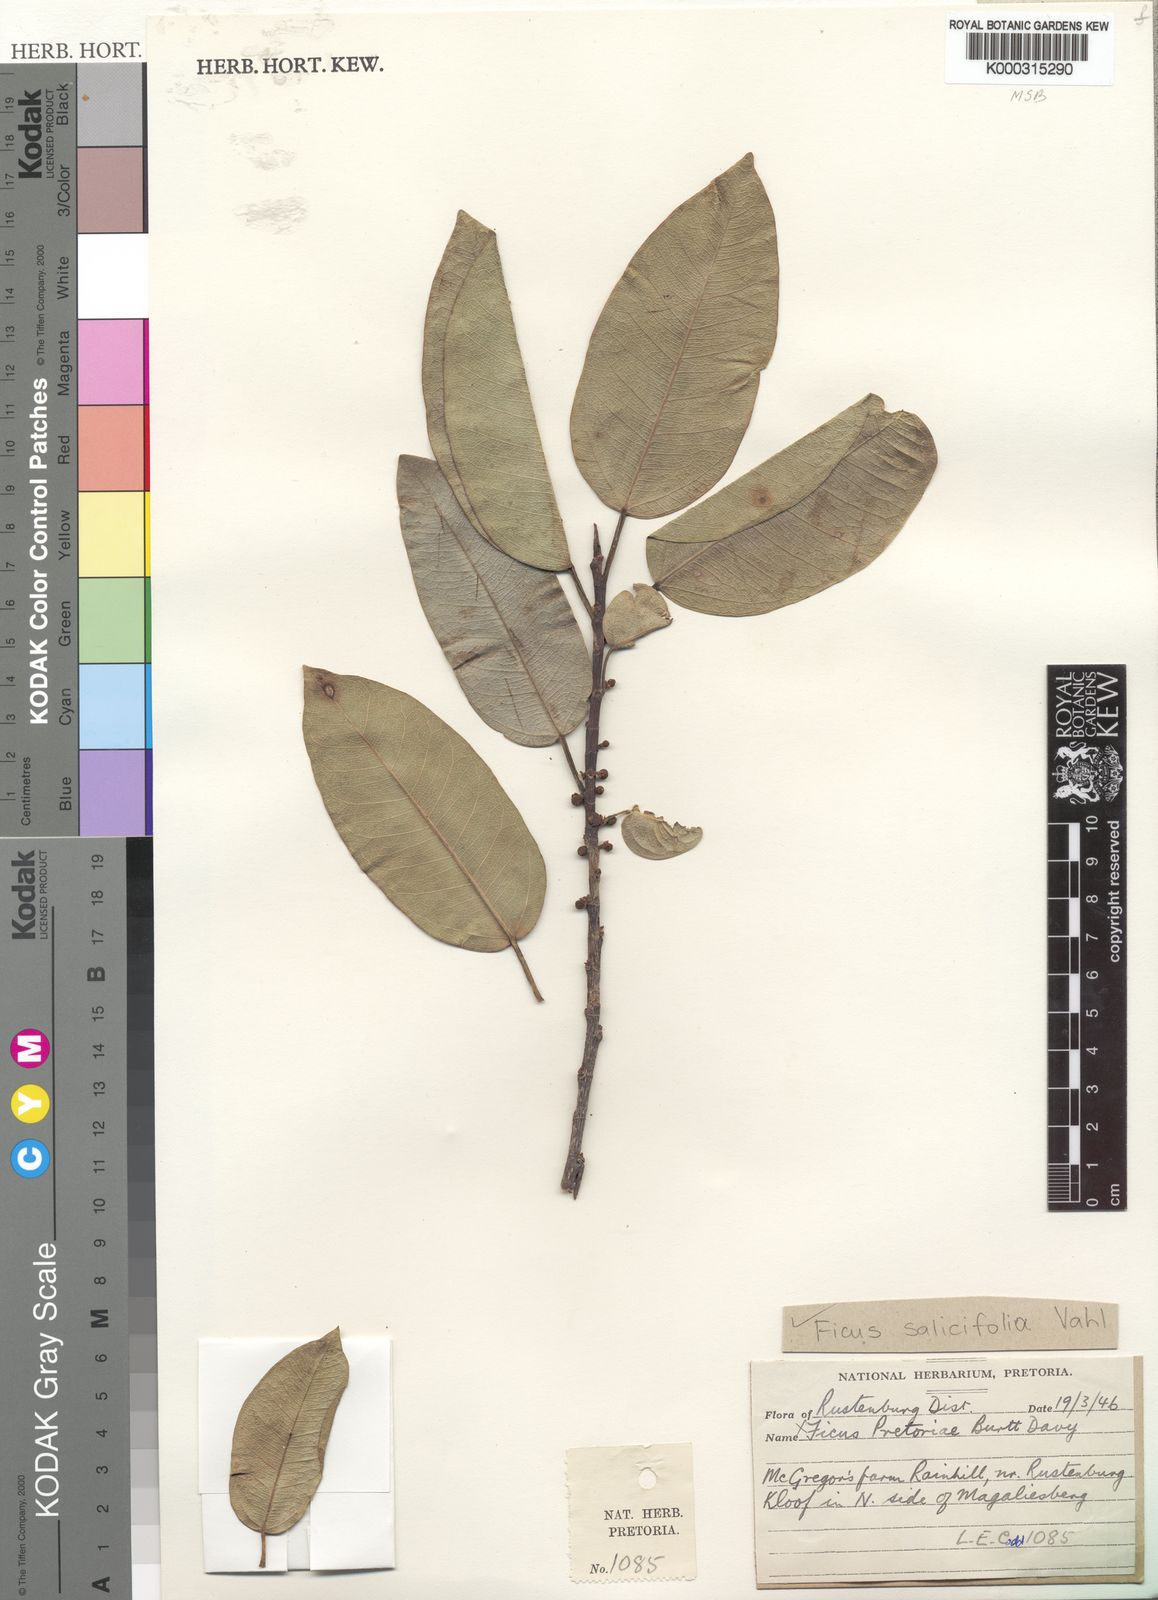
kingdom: Plantae
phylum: Tracheophyta
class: Magnoliopsida
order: Rosales
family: Moraceae
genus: Ficus
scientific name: Ficus salicifolia
